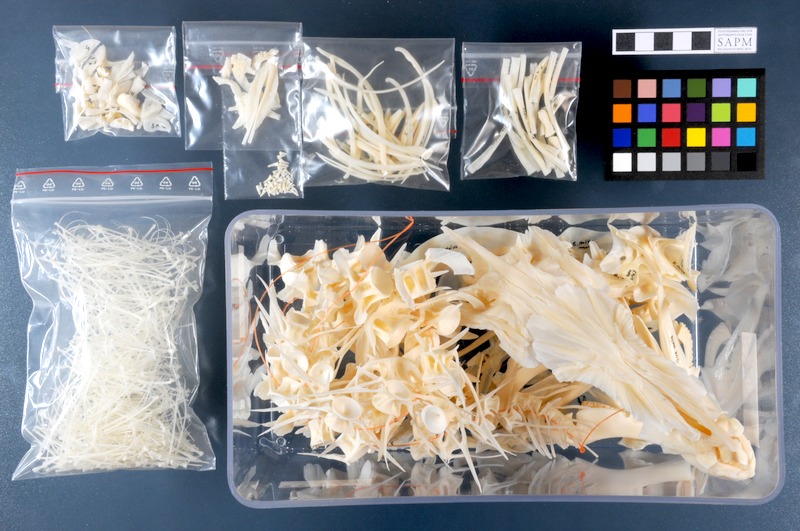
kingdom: Animalia
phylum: Chordata
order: Gadiformes
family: Lotidae
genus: Molva
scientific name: Molva molva
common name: Ling
